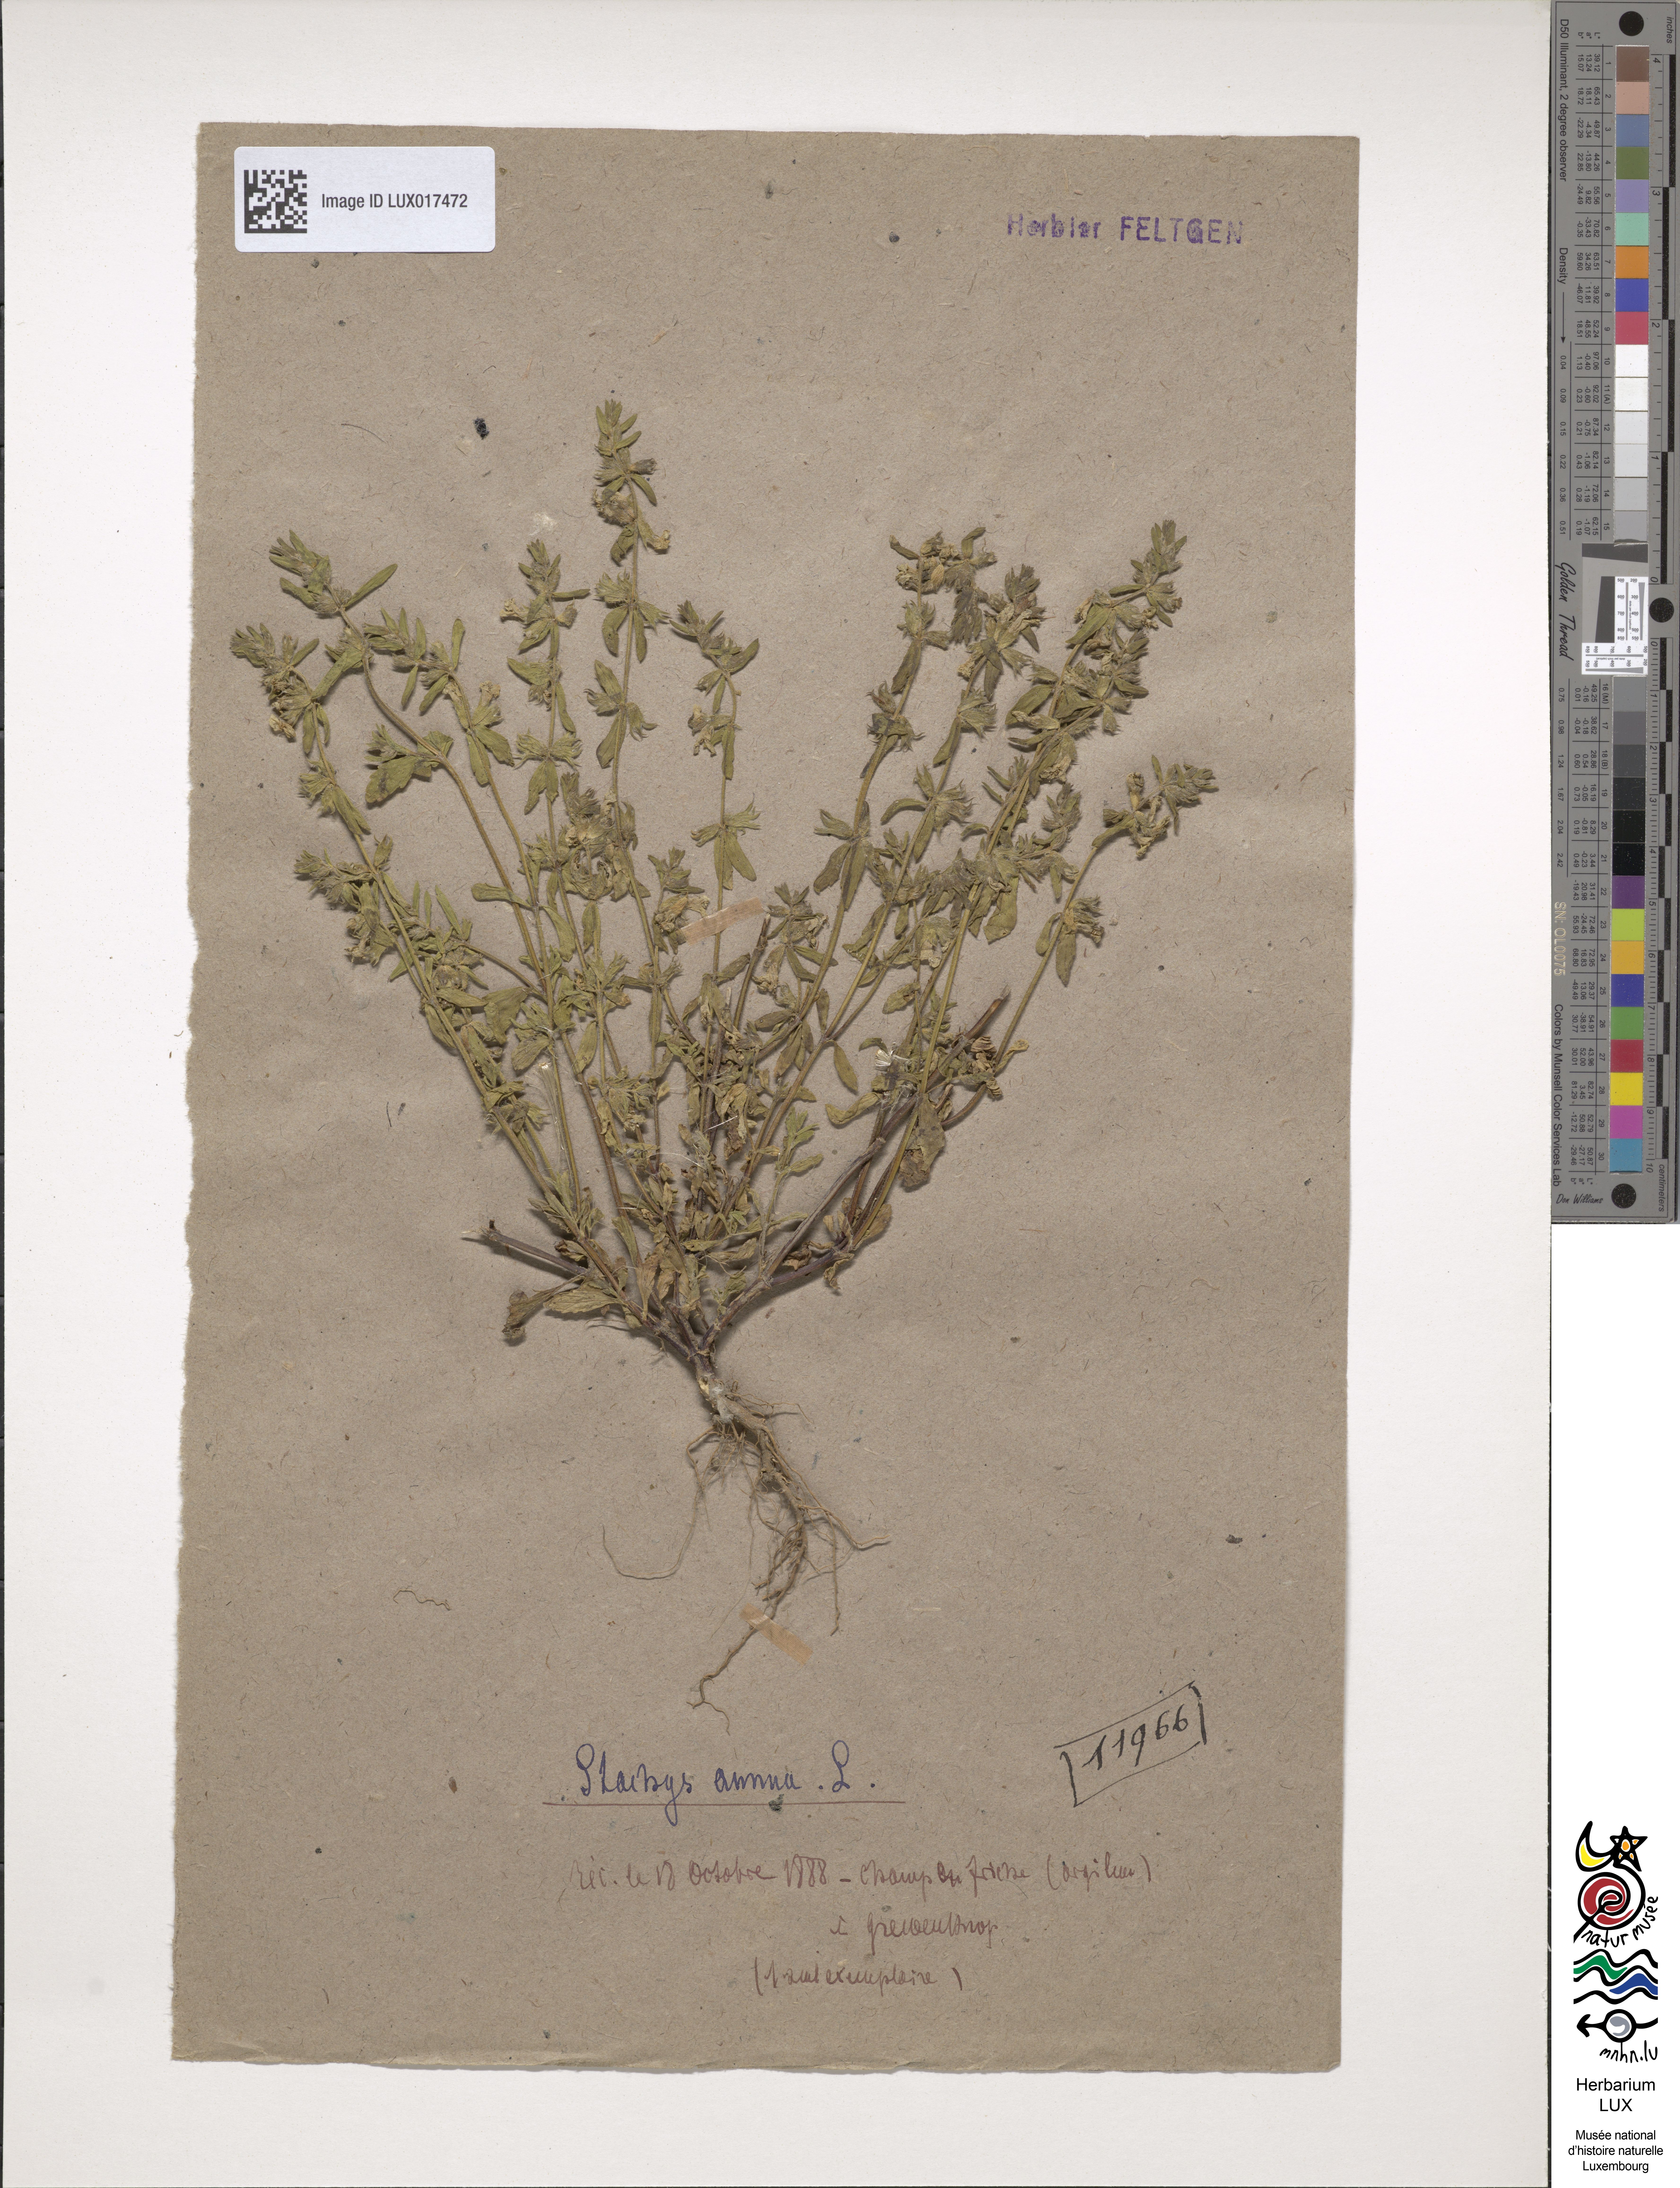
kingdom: Plantae
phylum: Tracheophyta
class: Magnoliopsida
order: Lamiales
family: Lamiaceae
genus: Stachys
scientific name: Stachys annua
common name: Annual yellow-woundwort
